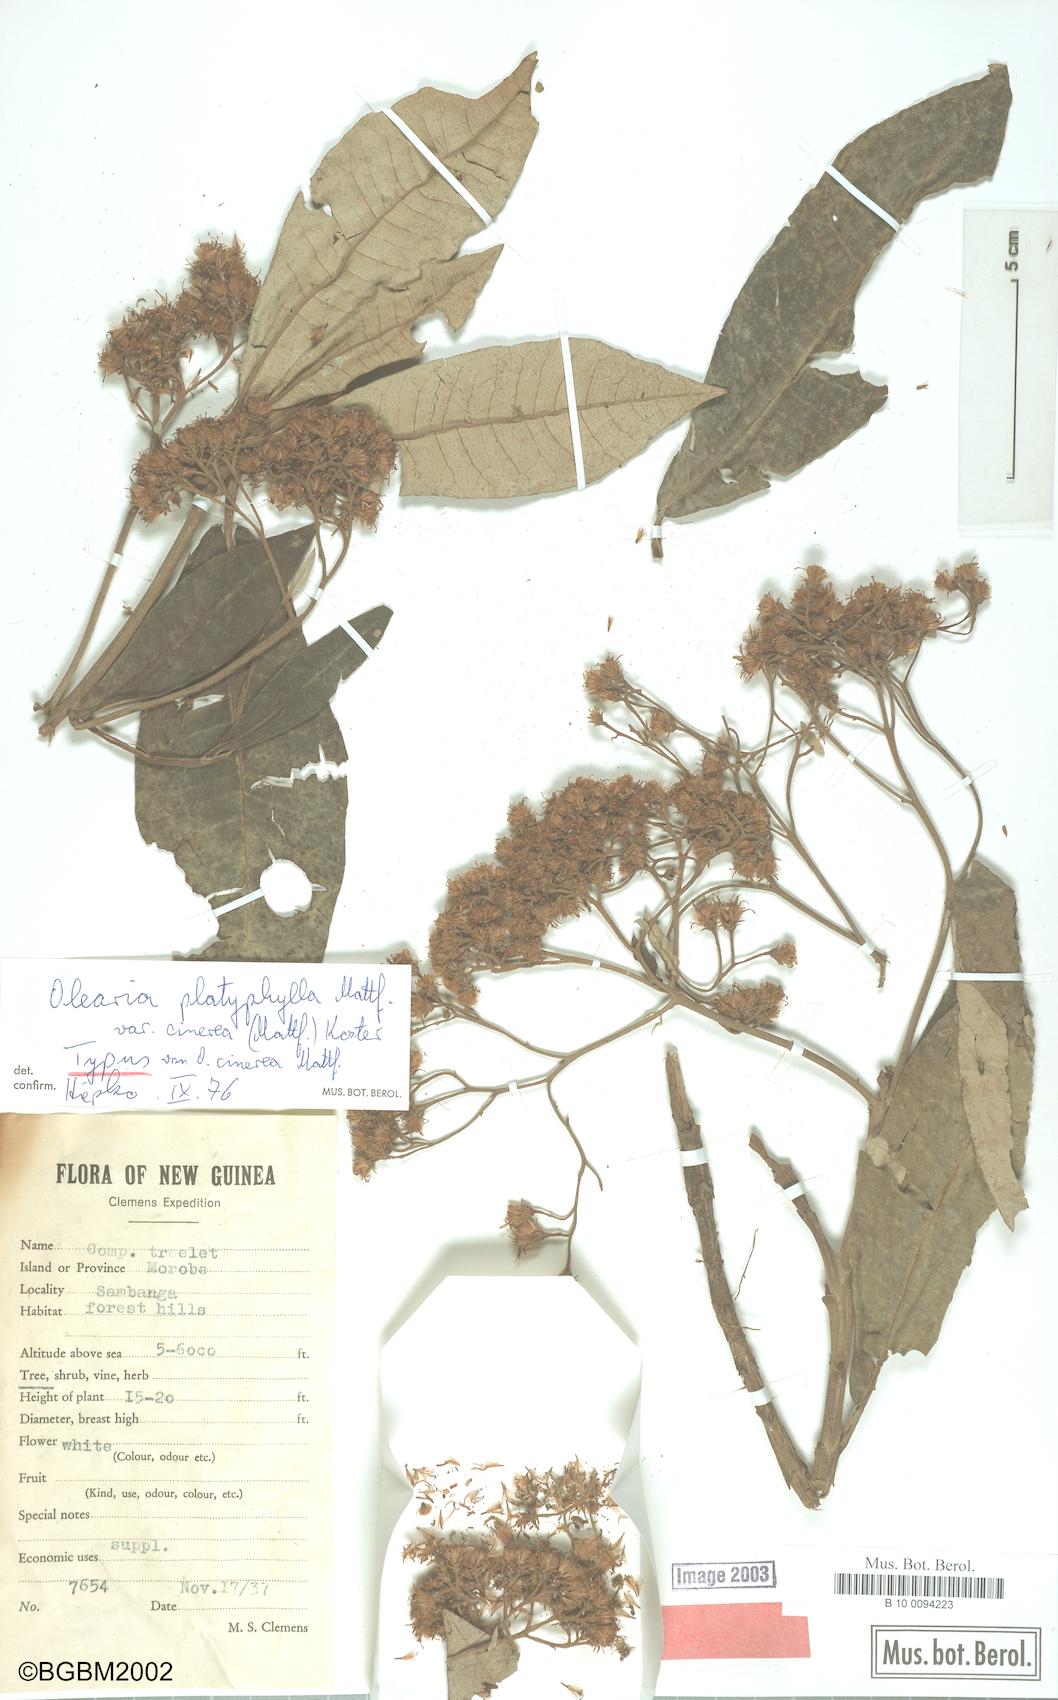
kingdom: Plantae
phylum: Tracheophyta
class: Magnoliopsida
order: Asterales
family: Asteraceae
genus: Olearia
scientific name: Olearia platyphylla
